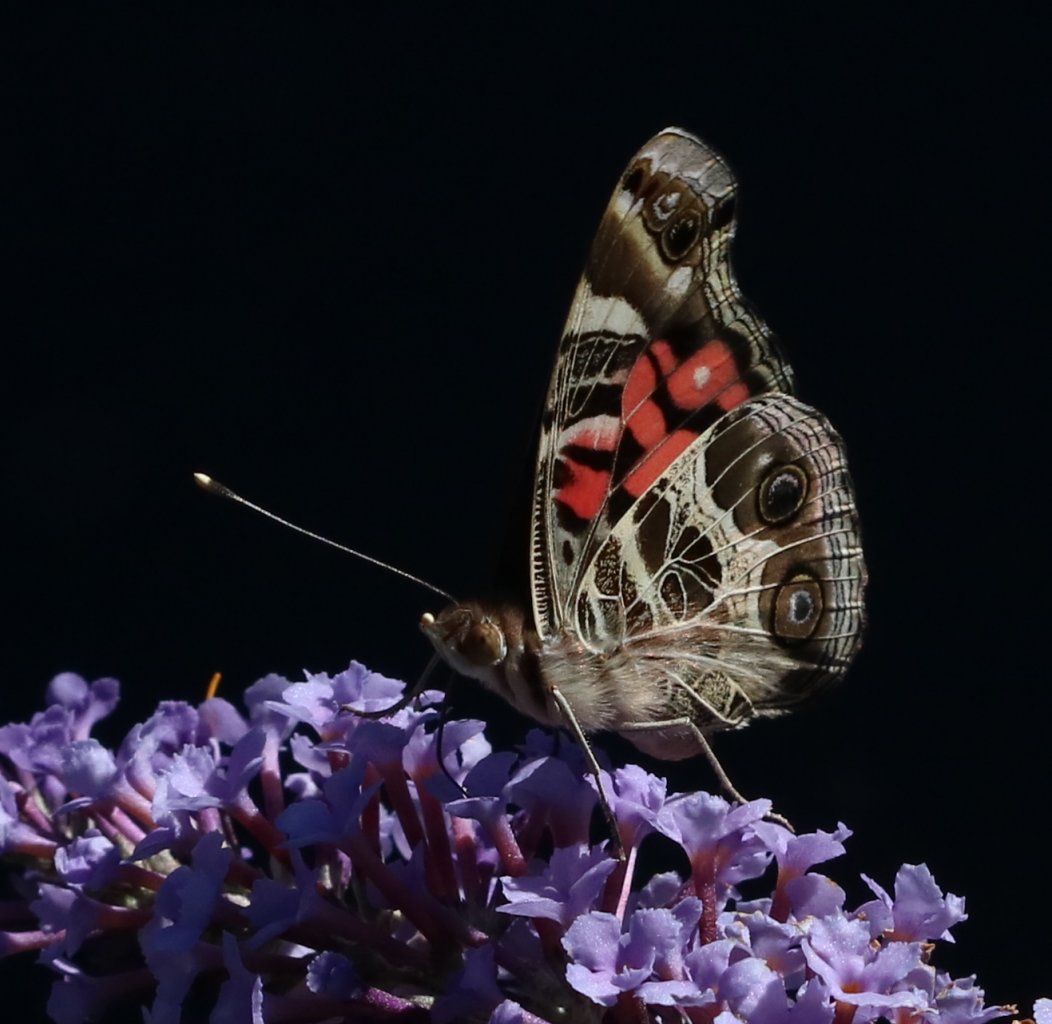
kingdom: Animalia
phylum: Arthropoda
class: Insecta
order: Lepidoptera
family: Nymphalidae
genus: Vanessa
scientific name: Vanessa virginiensis
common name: American Lady
